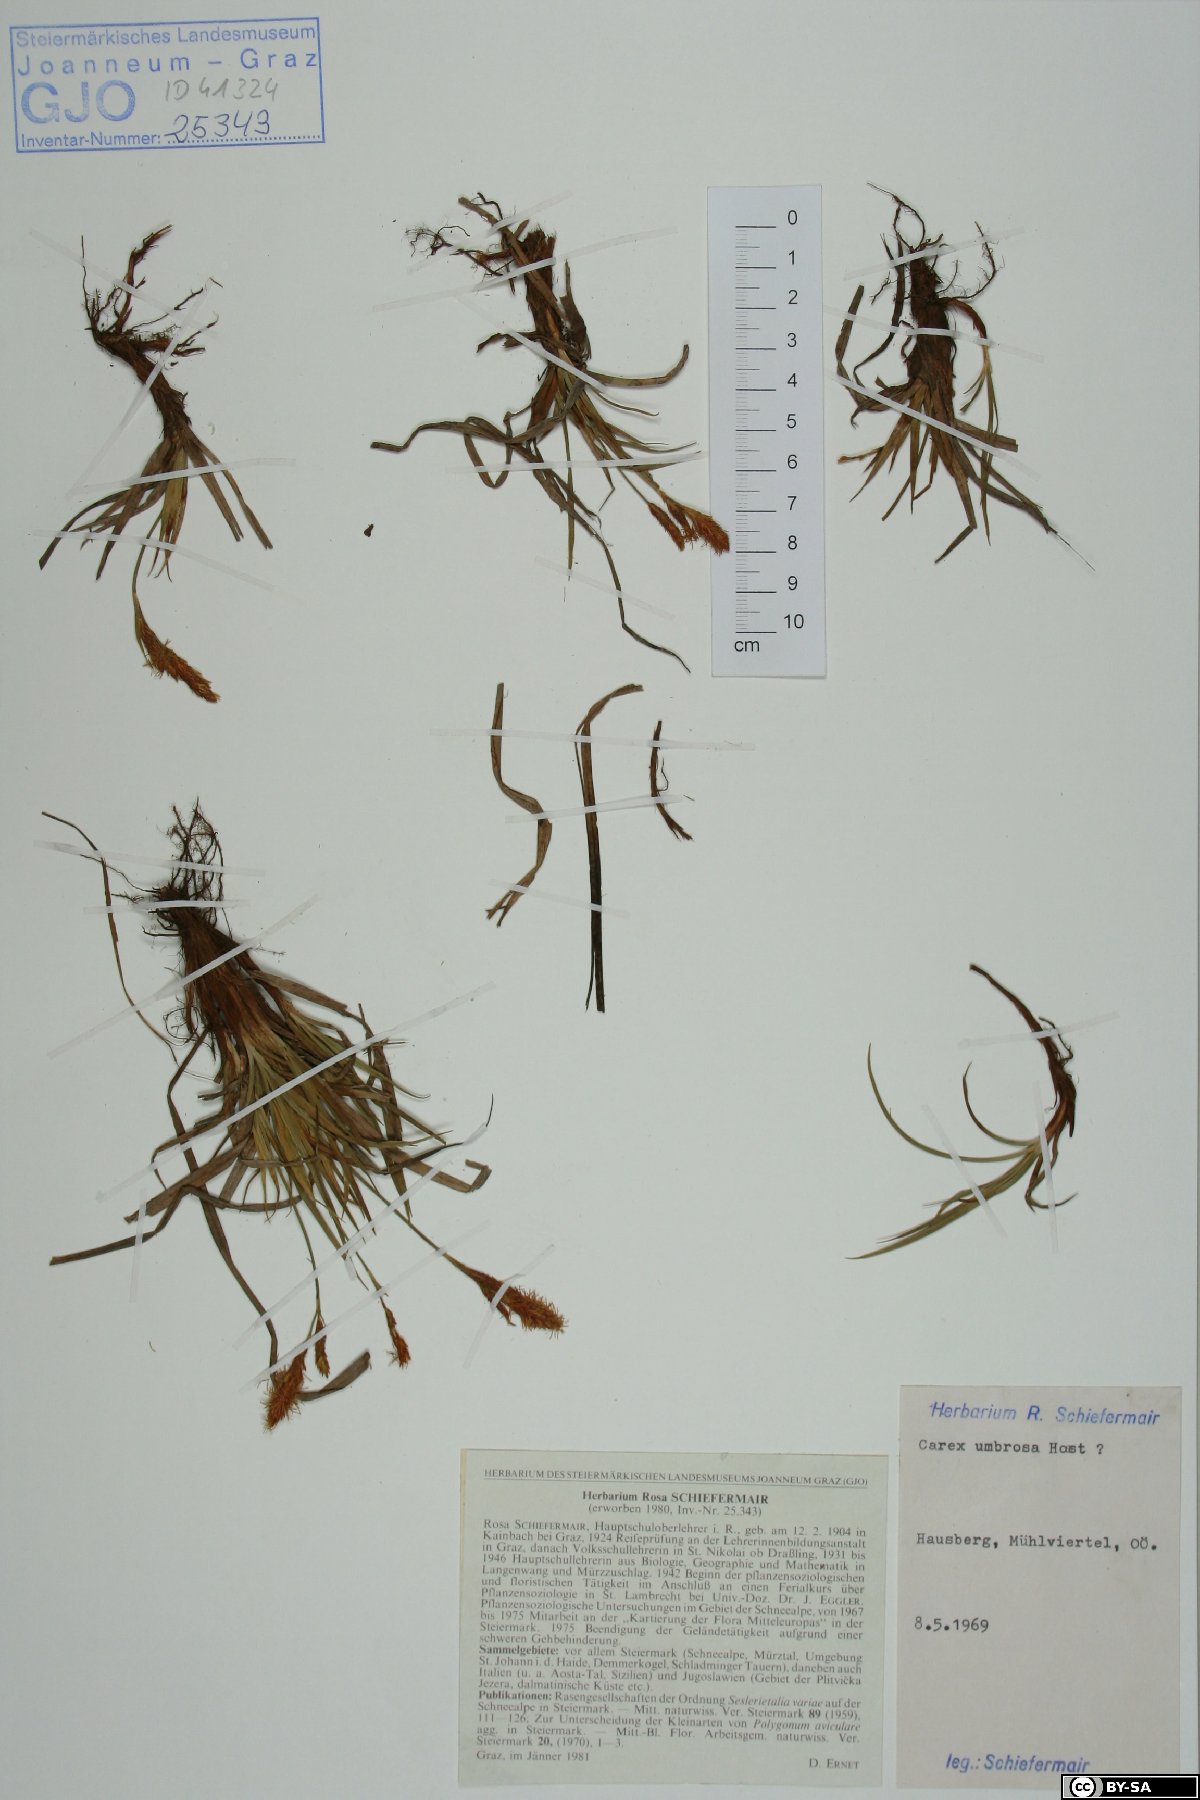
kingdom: Plantae
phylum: Tracheophyta
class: Liliopsida
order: Poales
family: Cyperaceae
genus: Carex
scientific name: Carex umbrosa
